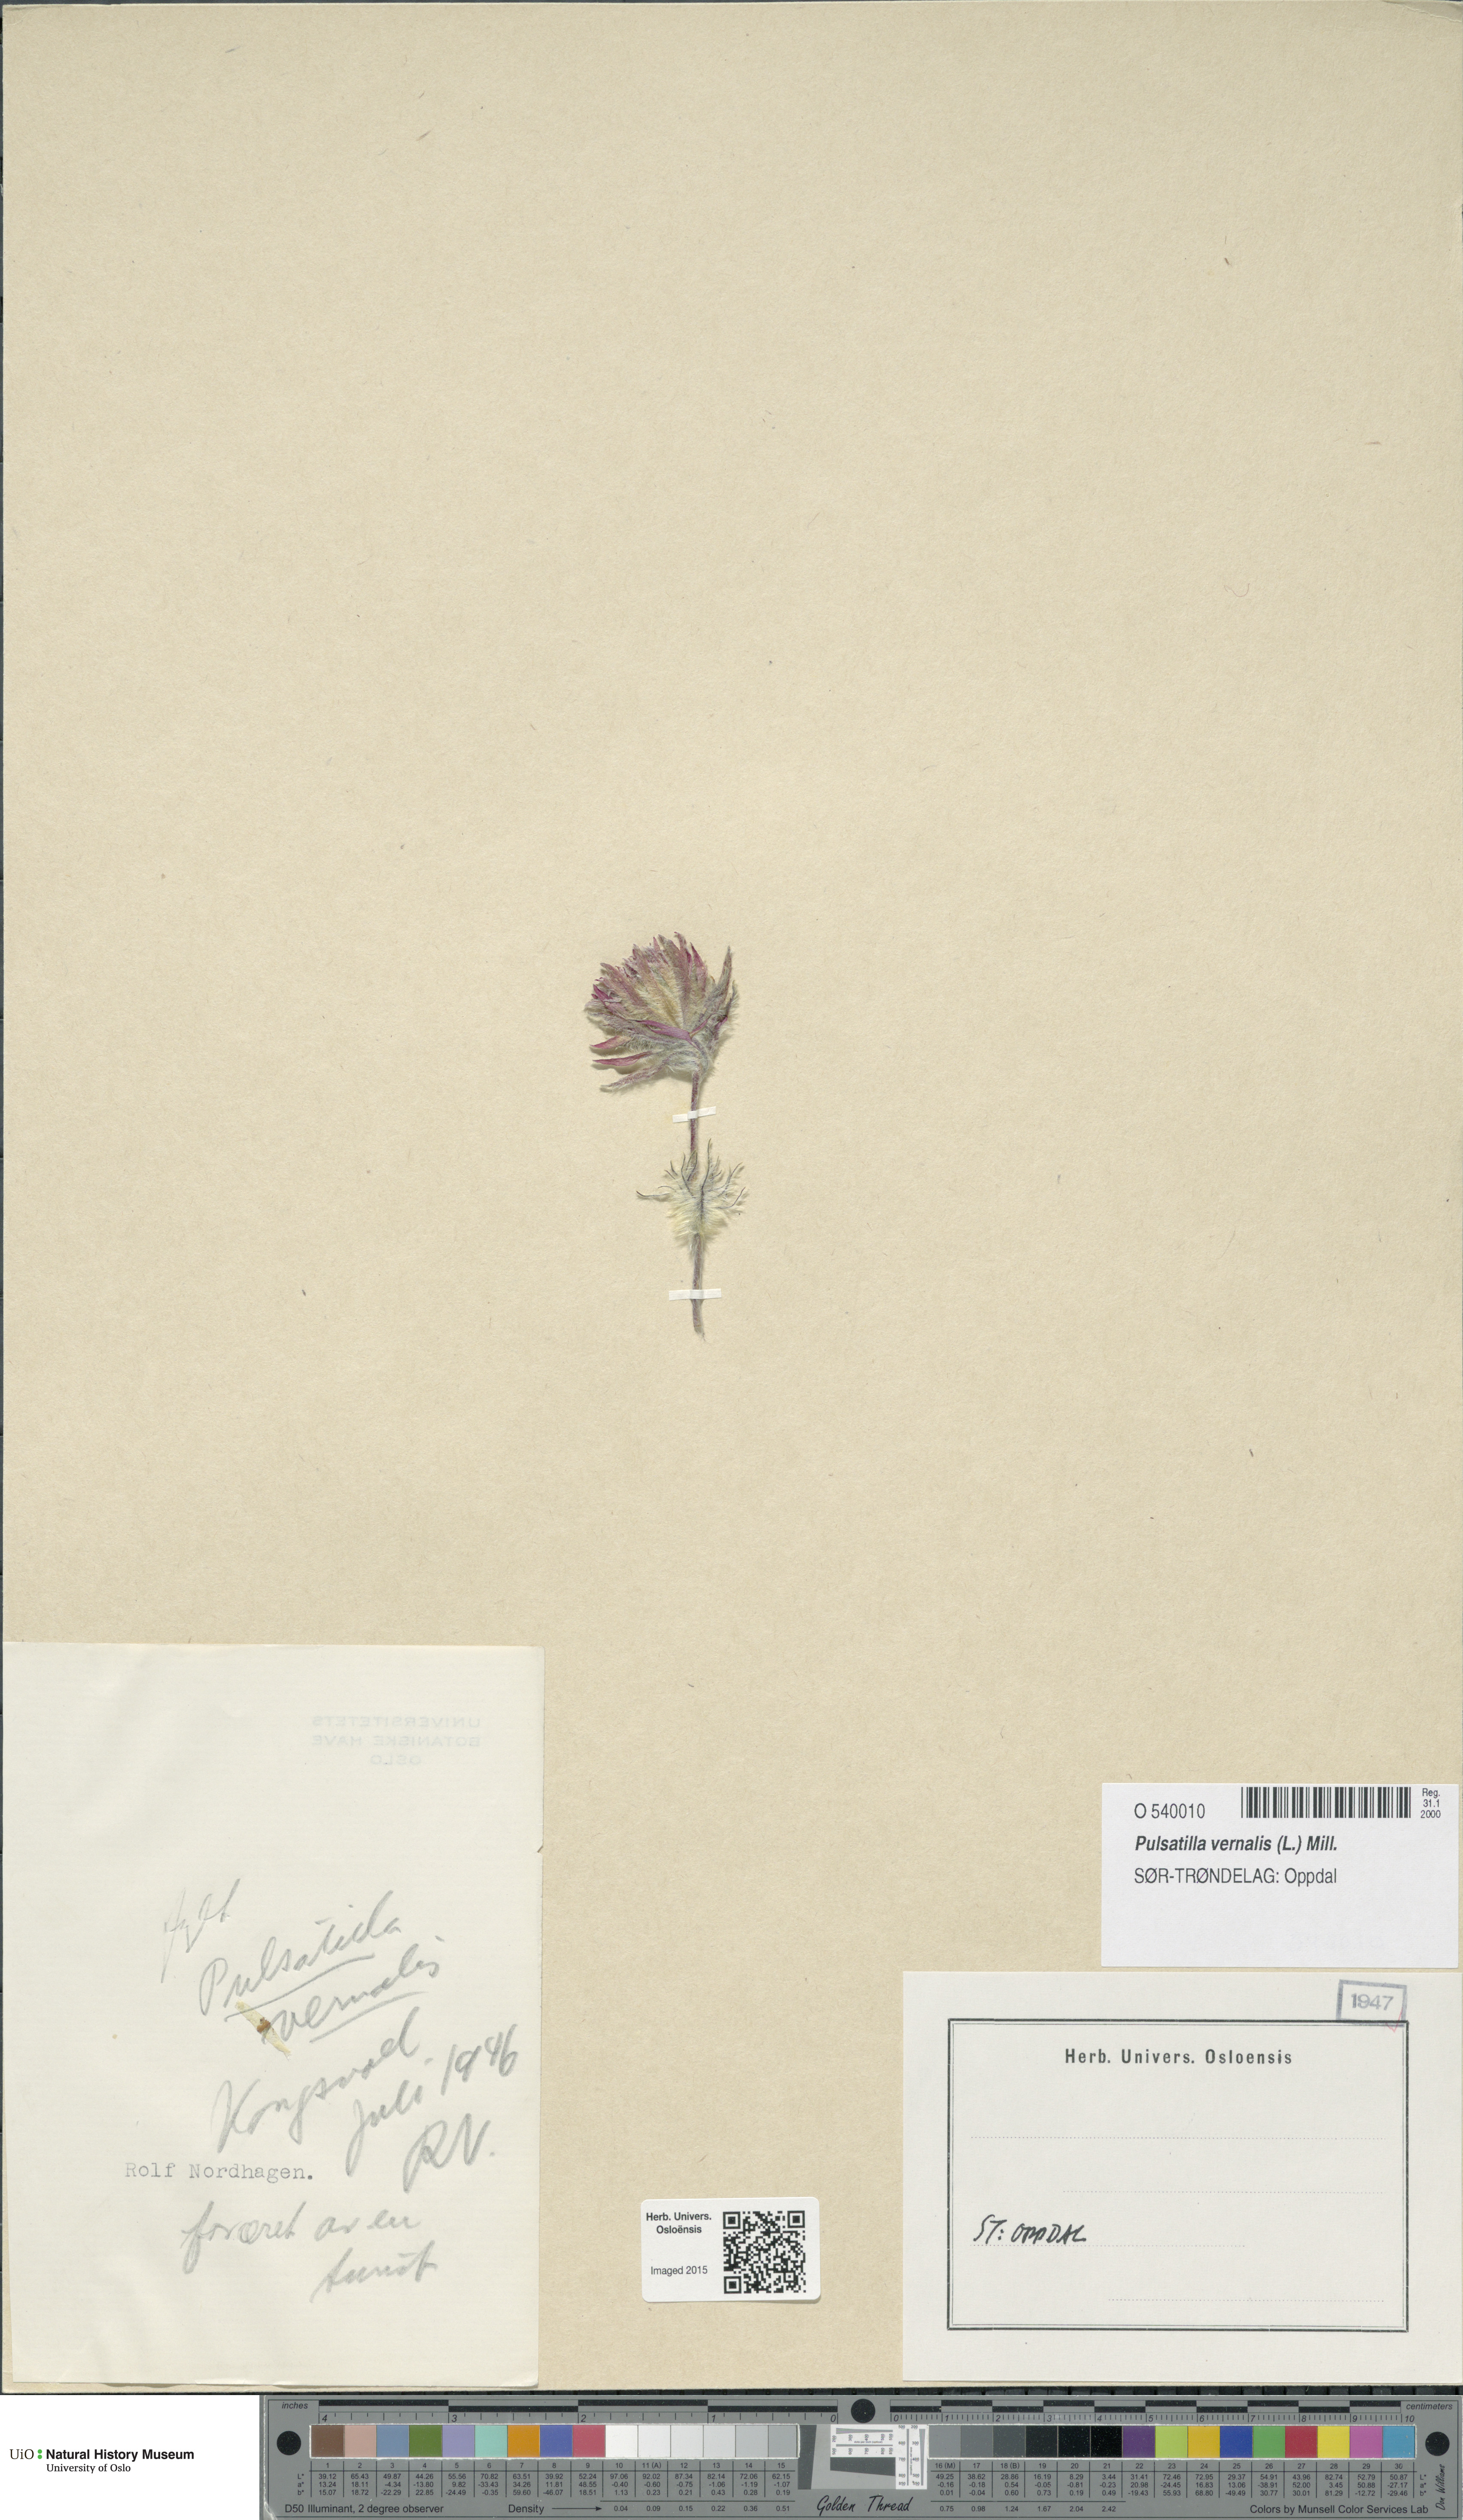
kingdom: Plantae
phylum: Tracheophyta
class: Magnoliopsida
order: Ranunculales
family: Ranunculaceae
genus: Pulsatilla
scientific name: Pulsatilla vernalis
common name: Spring pasque flower
